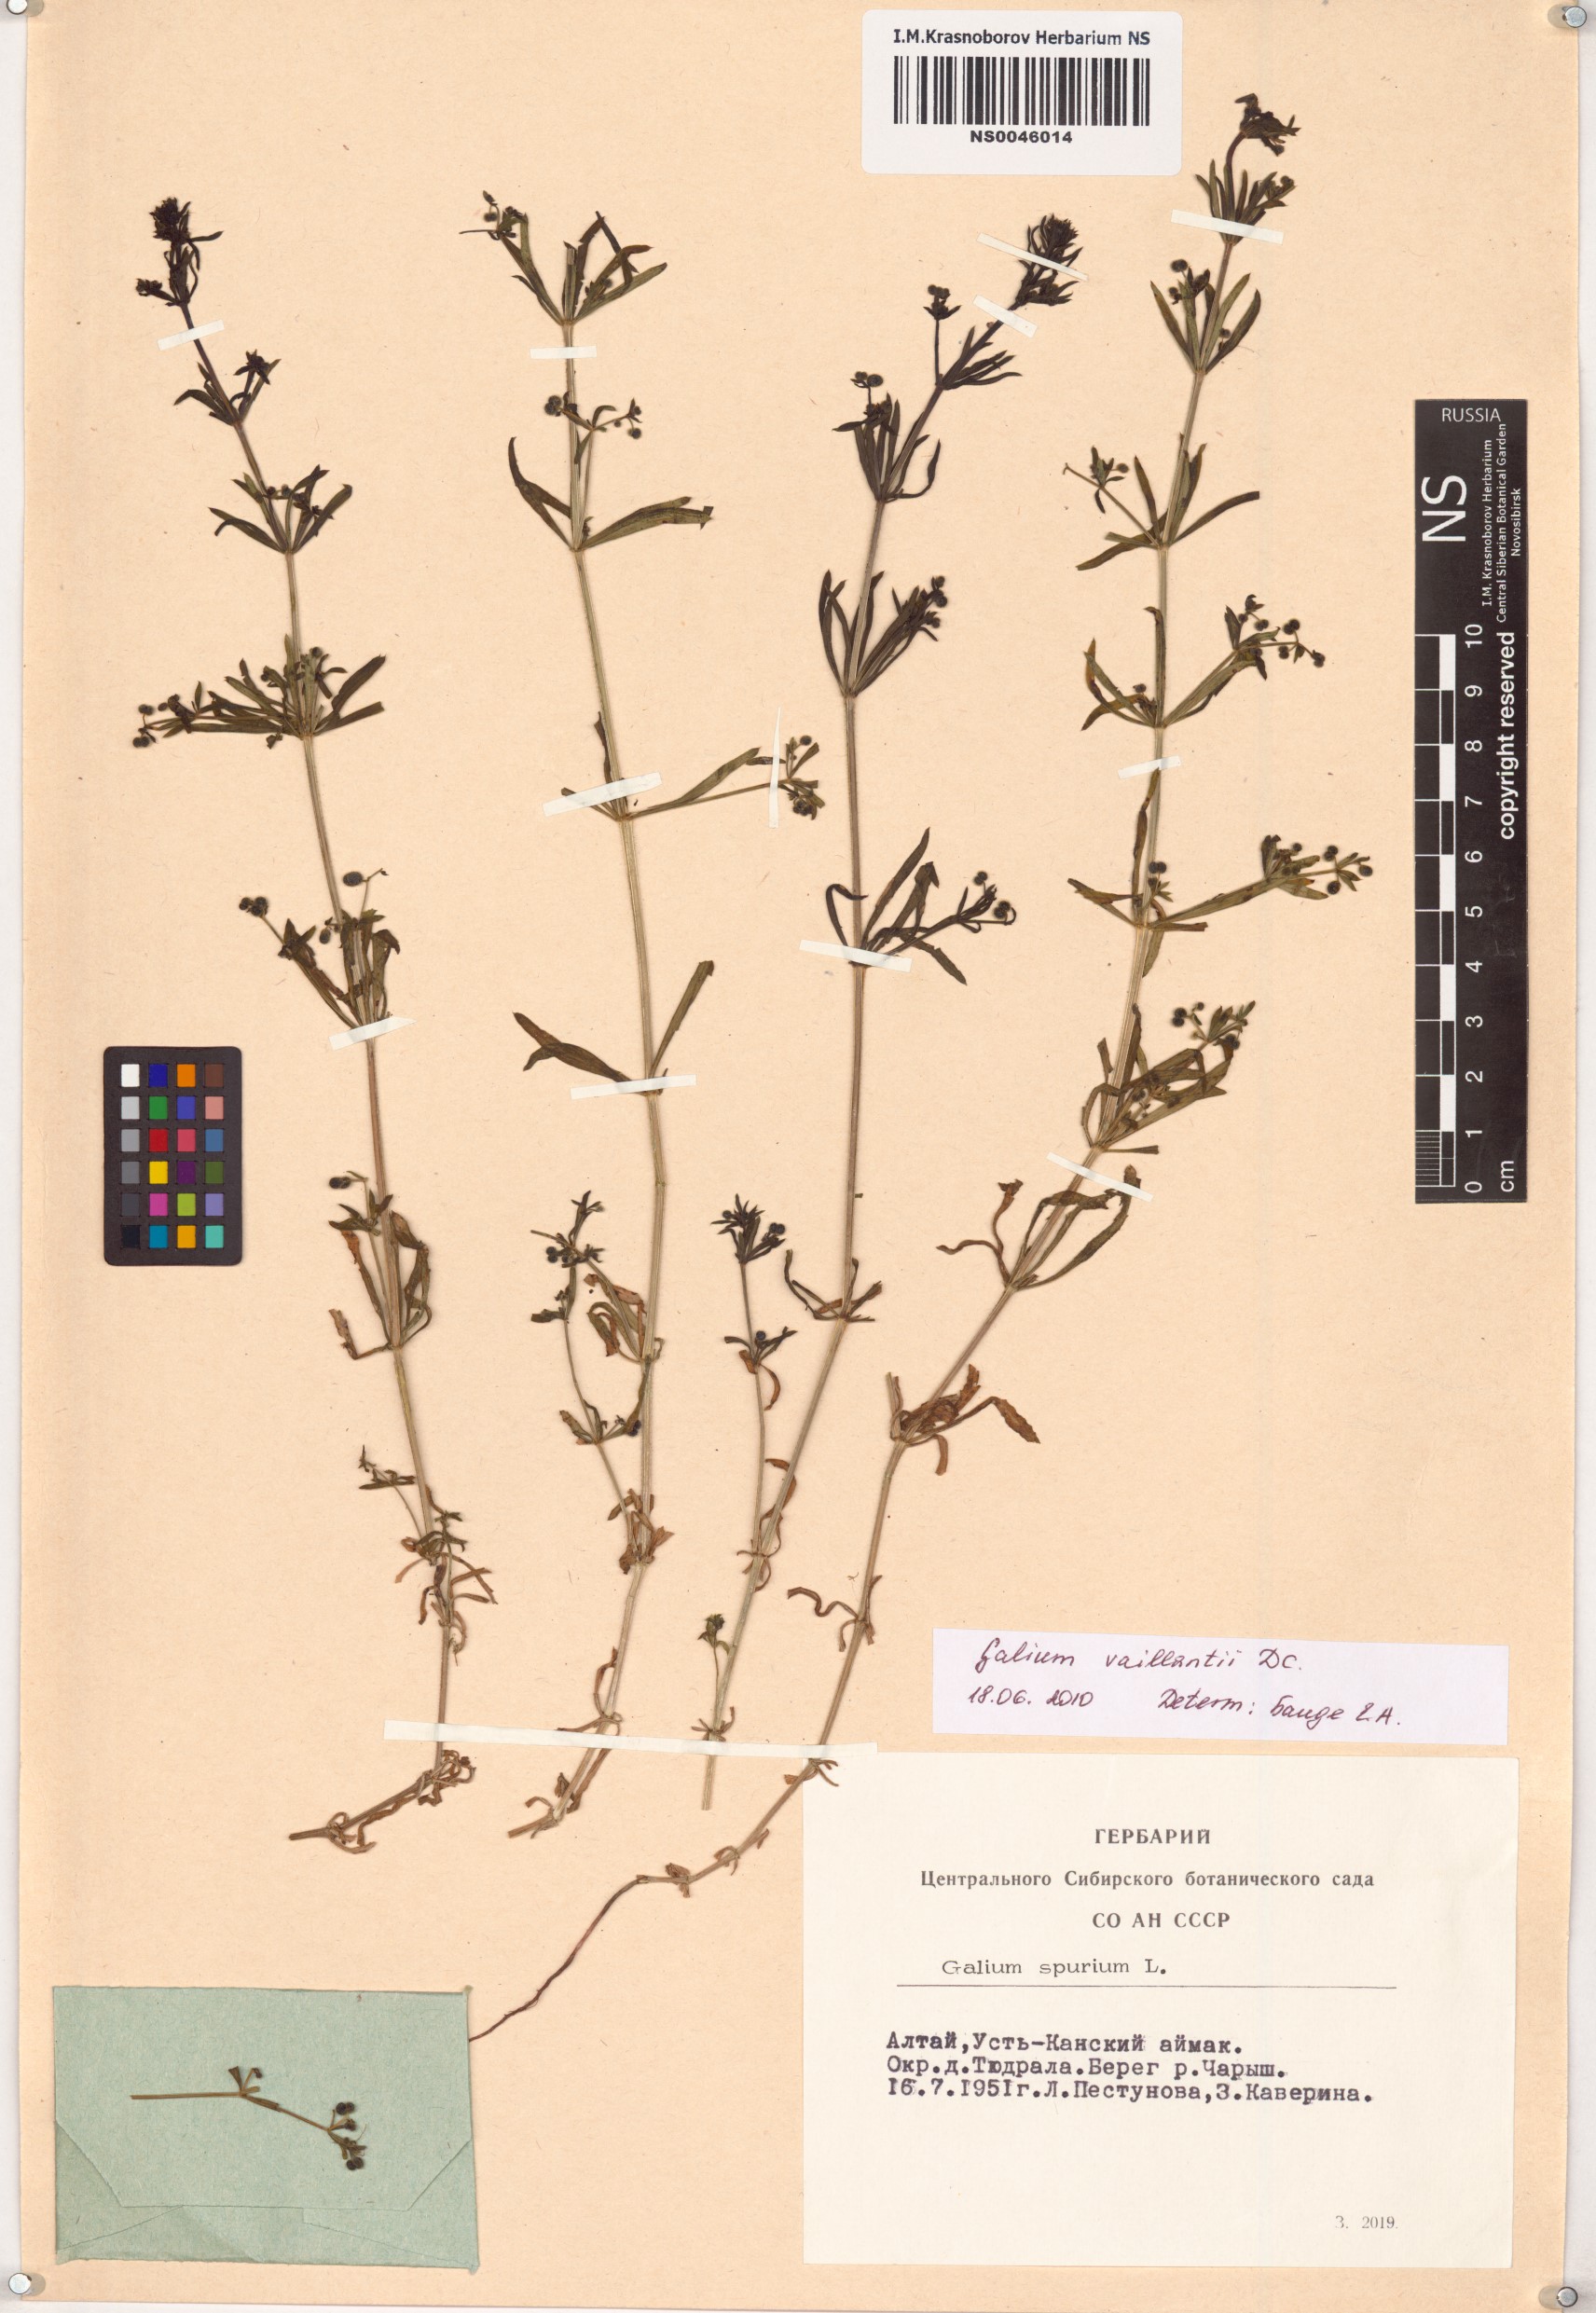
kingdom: Plantae
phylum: Tracheophyta
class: Magnoliopsida
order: Gentianales
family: Rubiaceae
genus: Galium
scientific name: Galium spurium
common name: False cleavers
